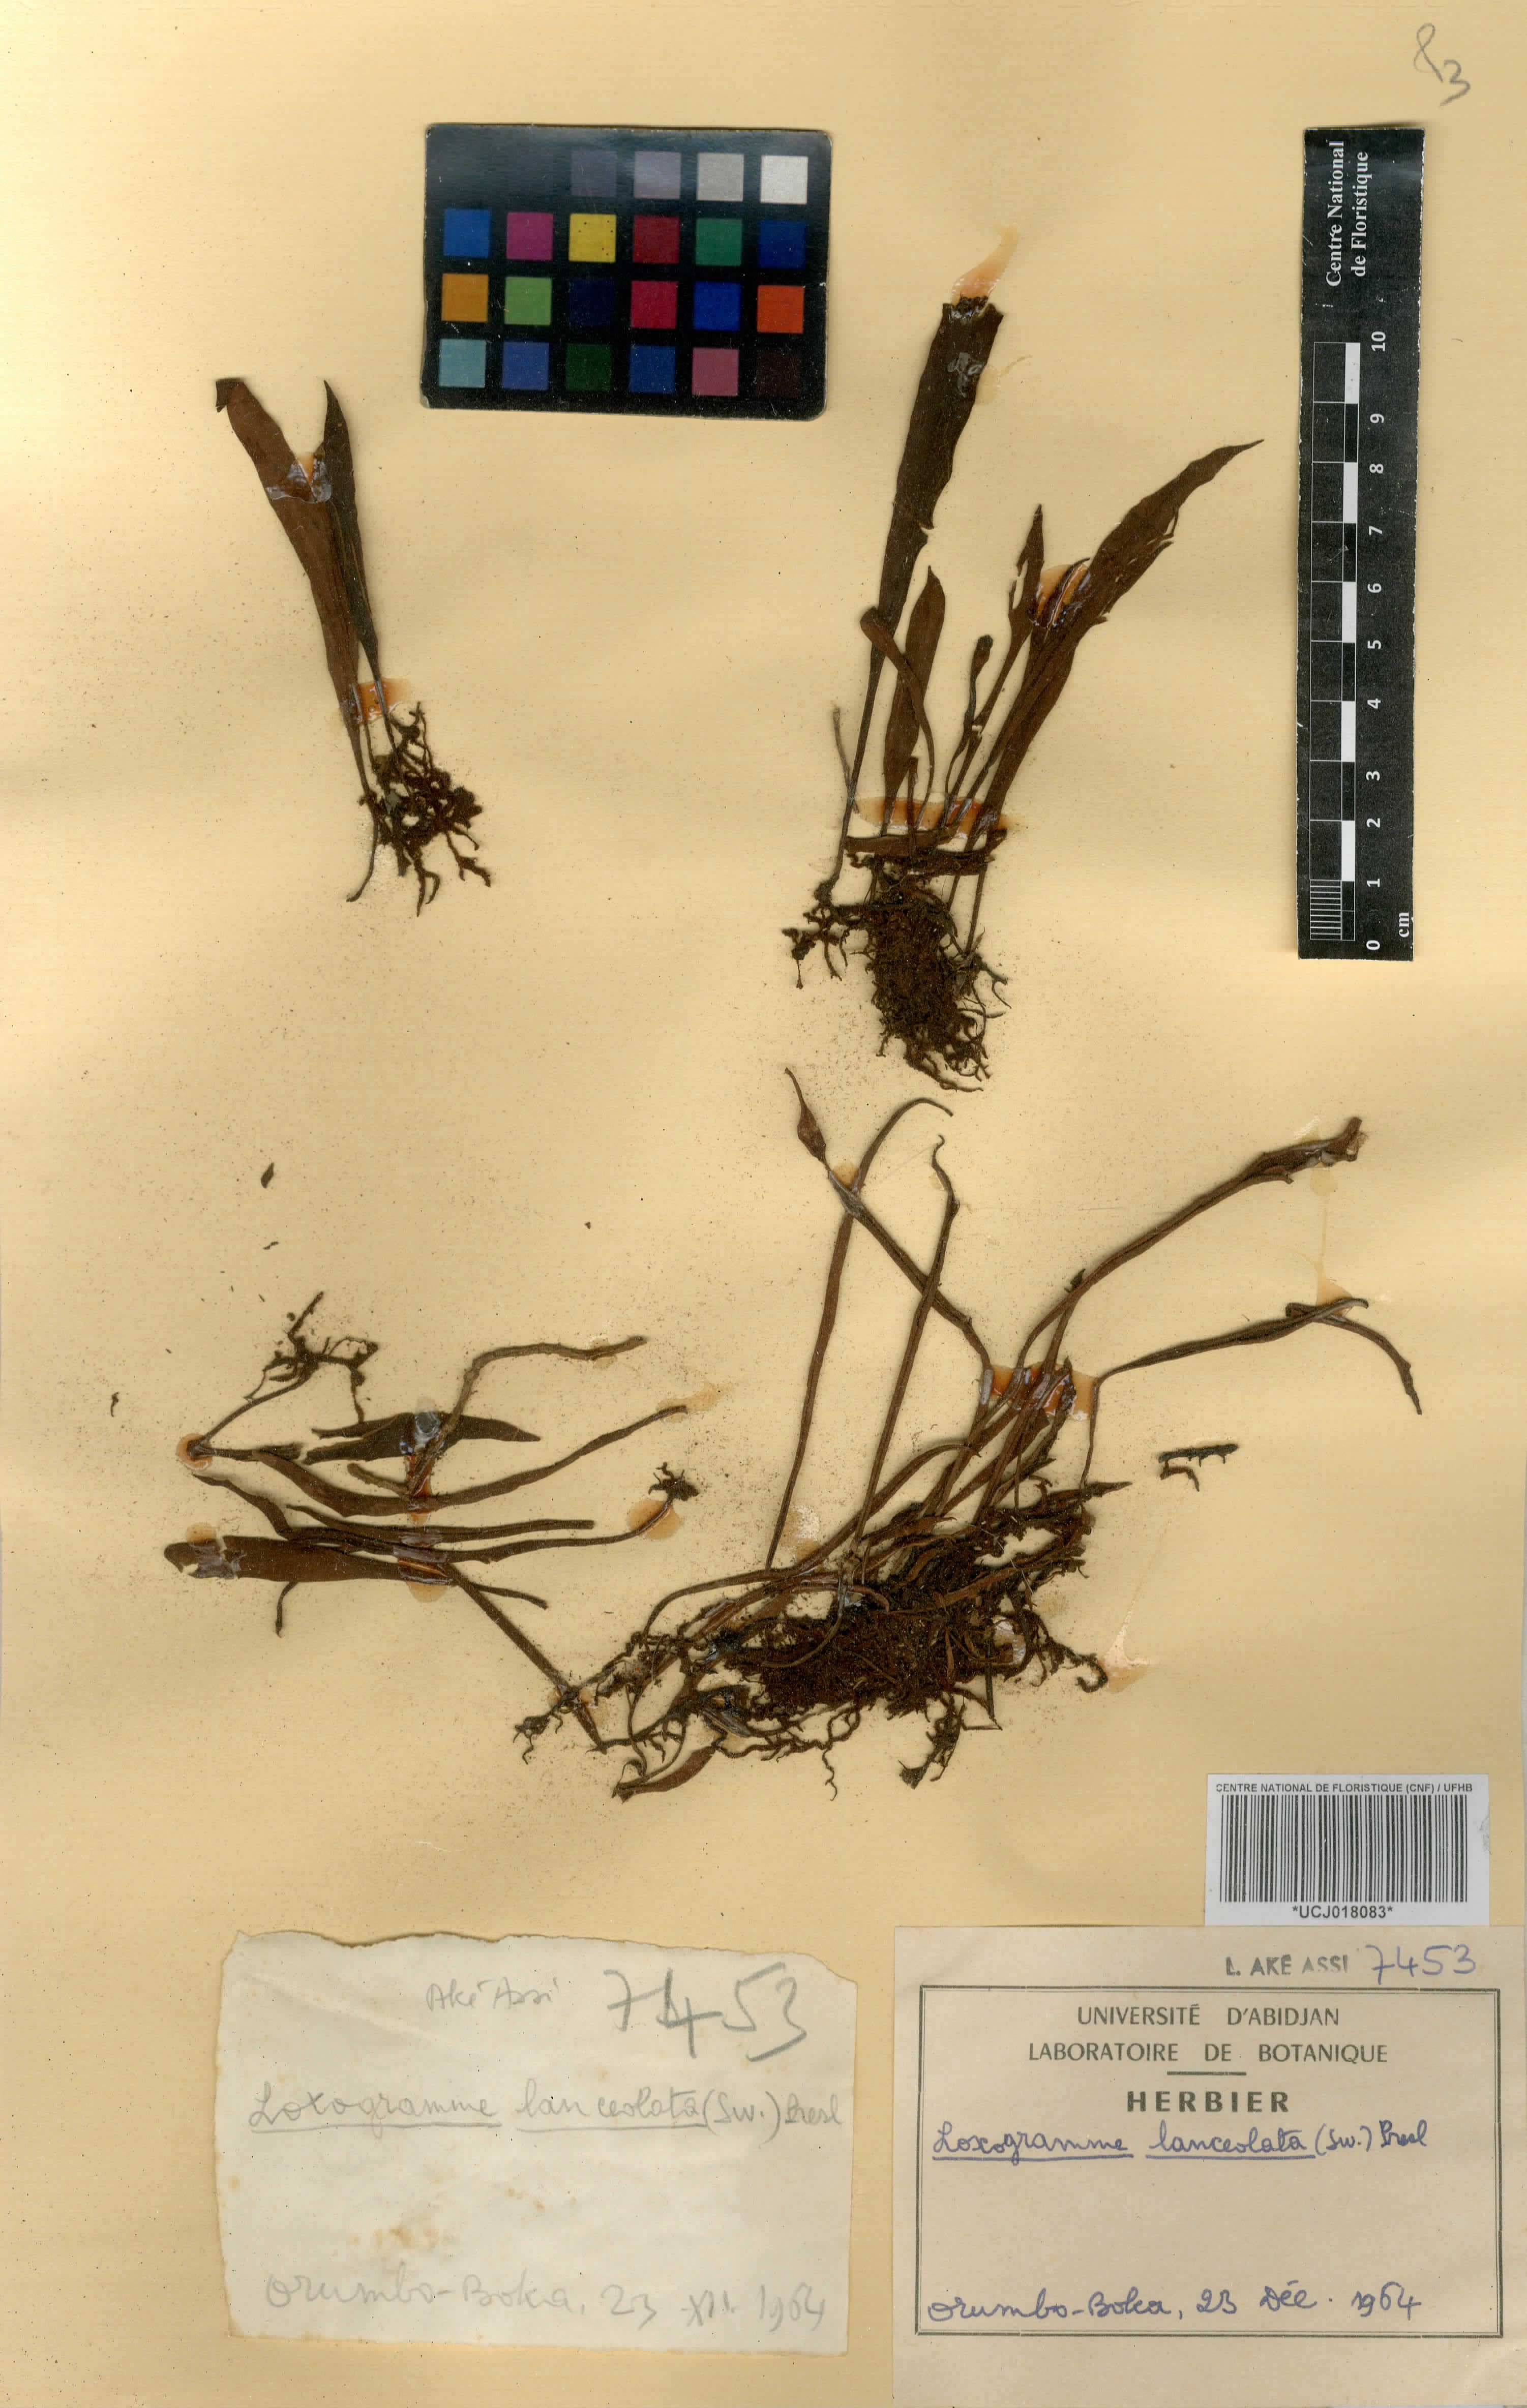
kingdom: Plantae
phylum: Tracheophyta
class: Polypodiopsida
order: Polypodiales
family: Polypodiaceae
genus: Loxogramme
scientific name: Loxogramme lanceolata
